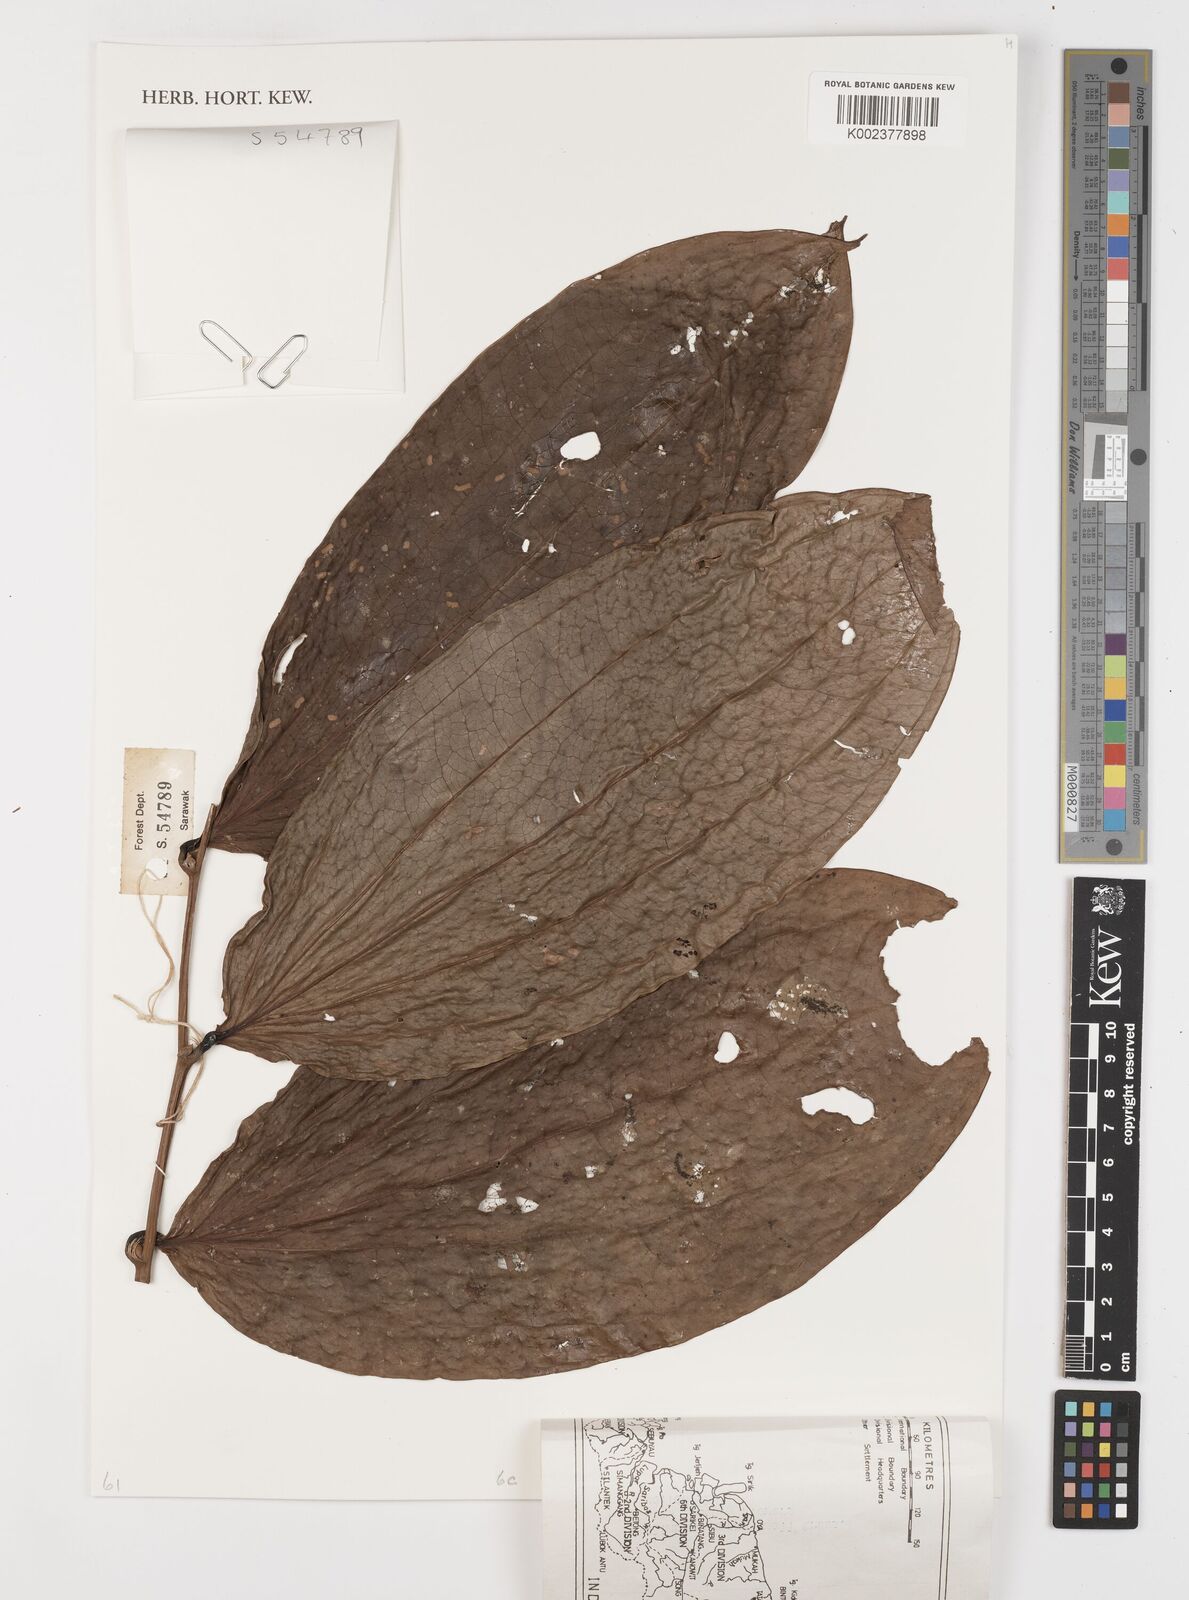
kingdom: Plantae
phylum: Tracheophyta
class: Liliopsida
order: Liliales
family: Smilacaceae
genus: Smilax
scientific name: Smilax
